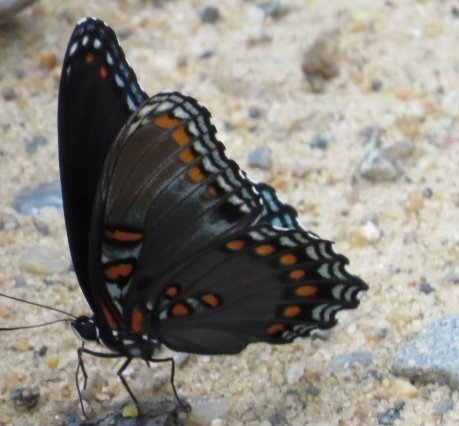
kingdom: Animalia
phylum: Arthropoda
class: Insecta
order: Lepidoptera
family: Nymphalidae
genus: Limenitis
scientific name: Limenitis astyanax
